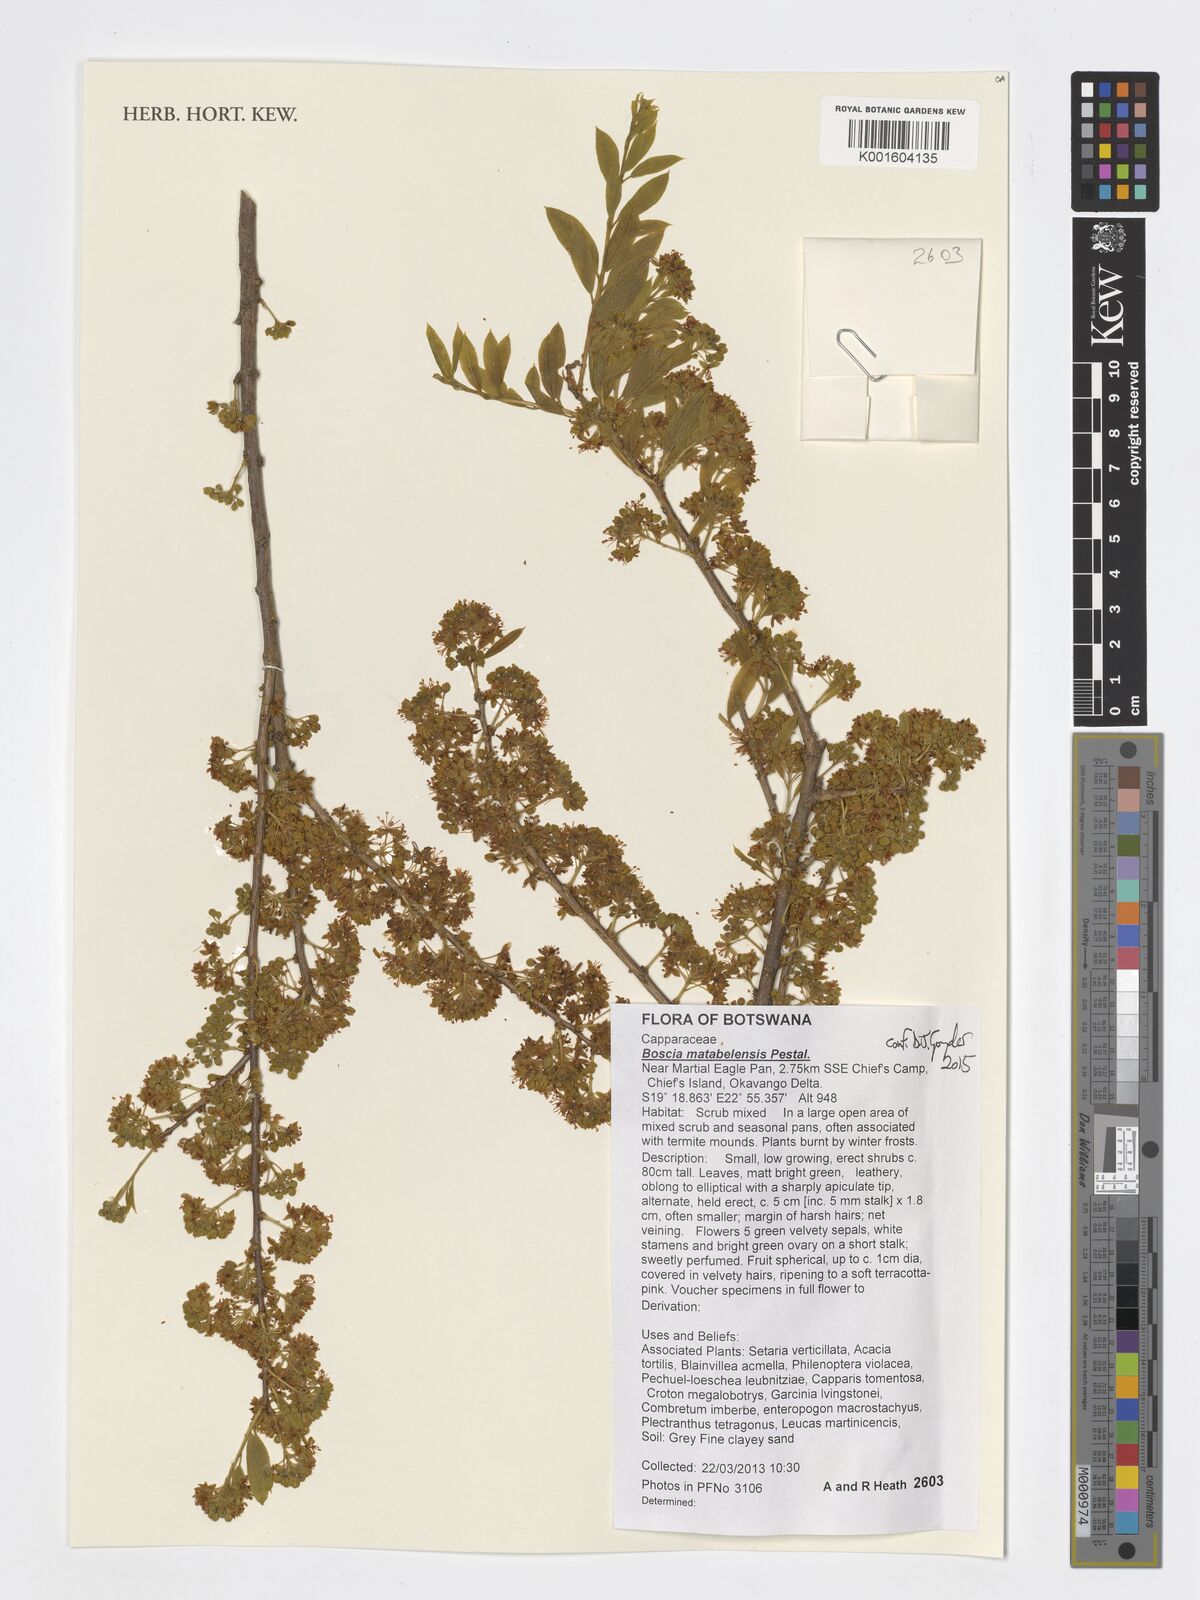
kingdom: Plantae
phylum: Tracheophyta
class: Magnoliopsida
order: Brassicales
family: Capparaceae
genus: Boscia
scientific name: Boscia matabelensis
